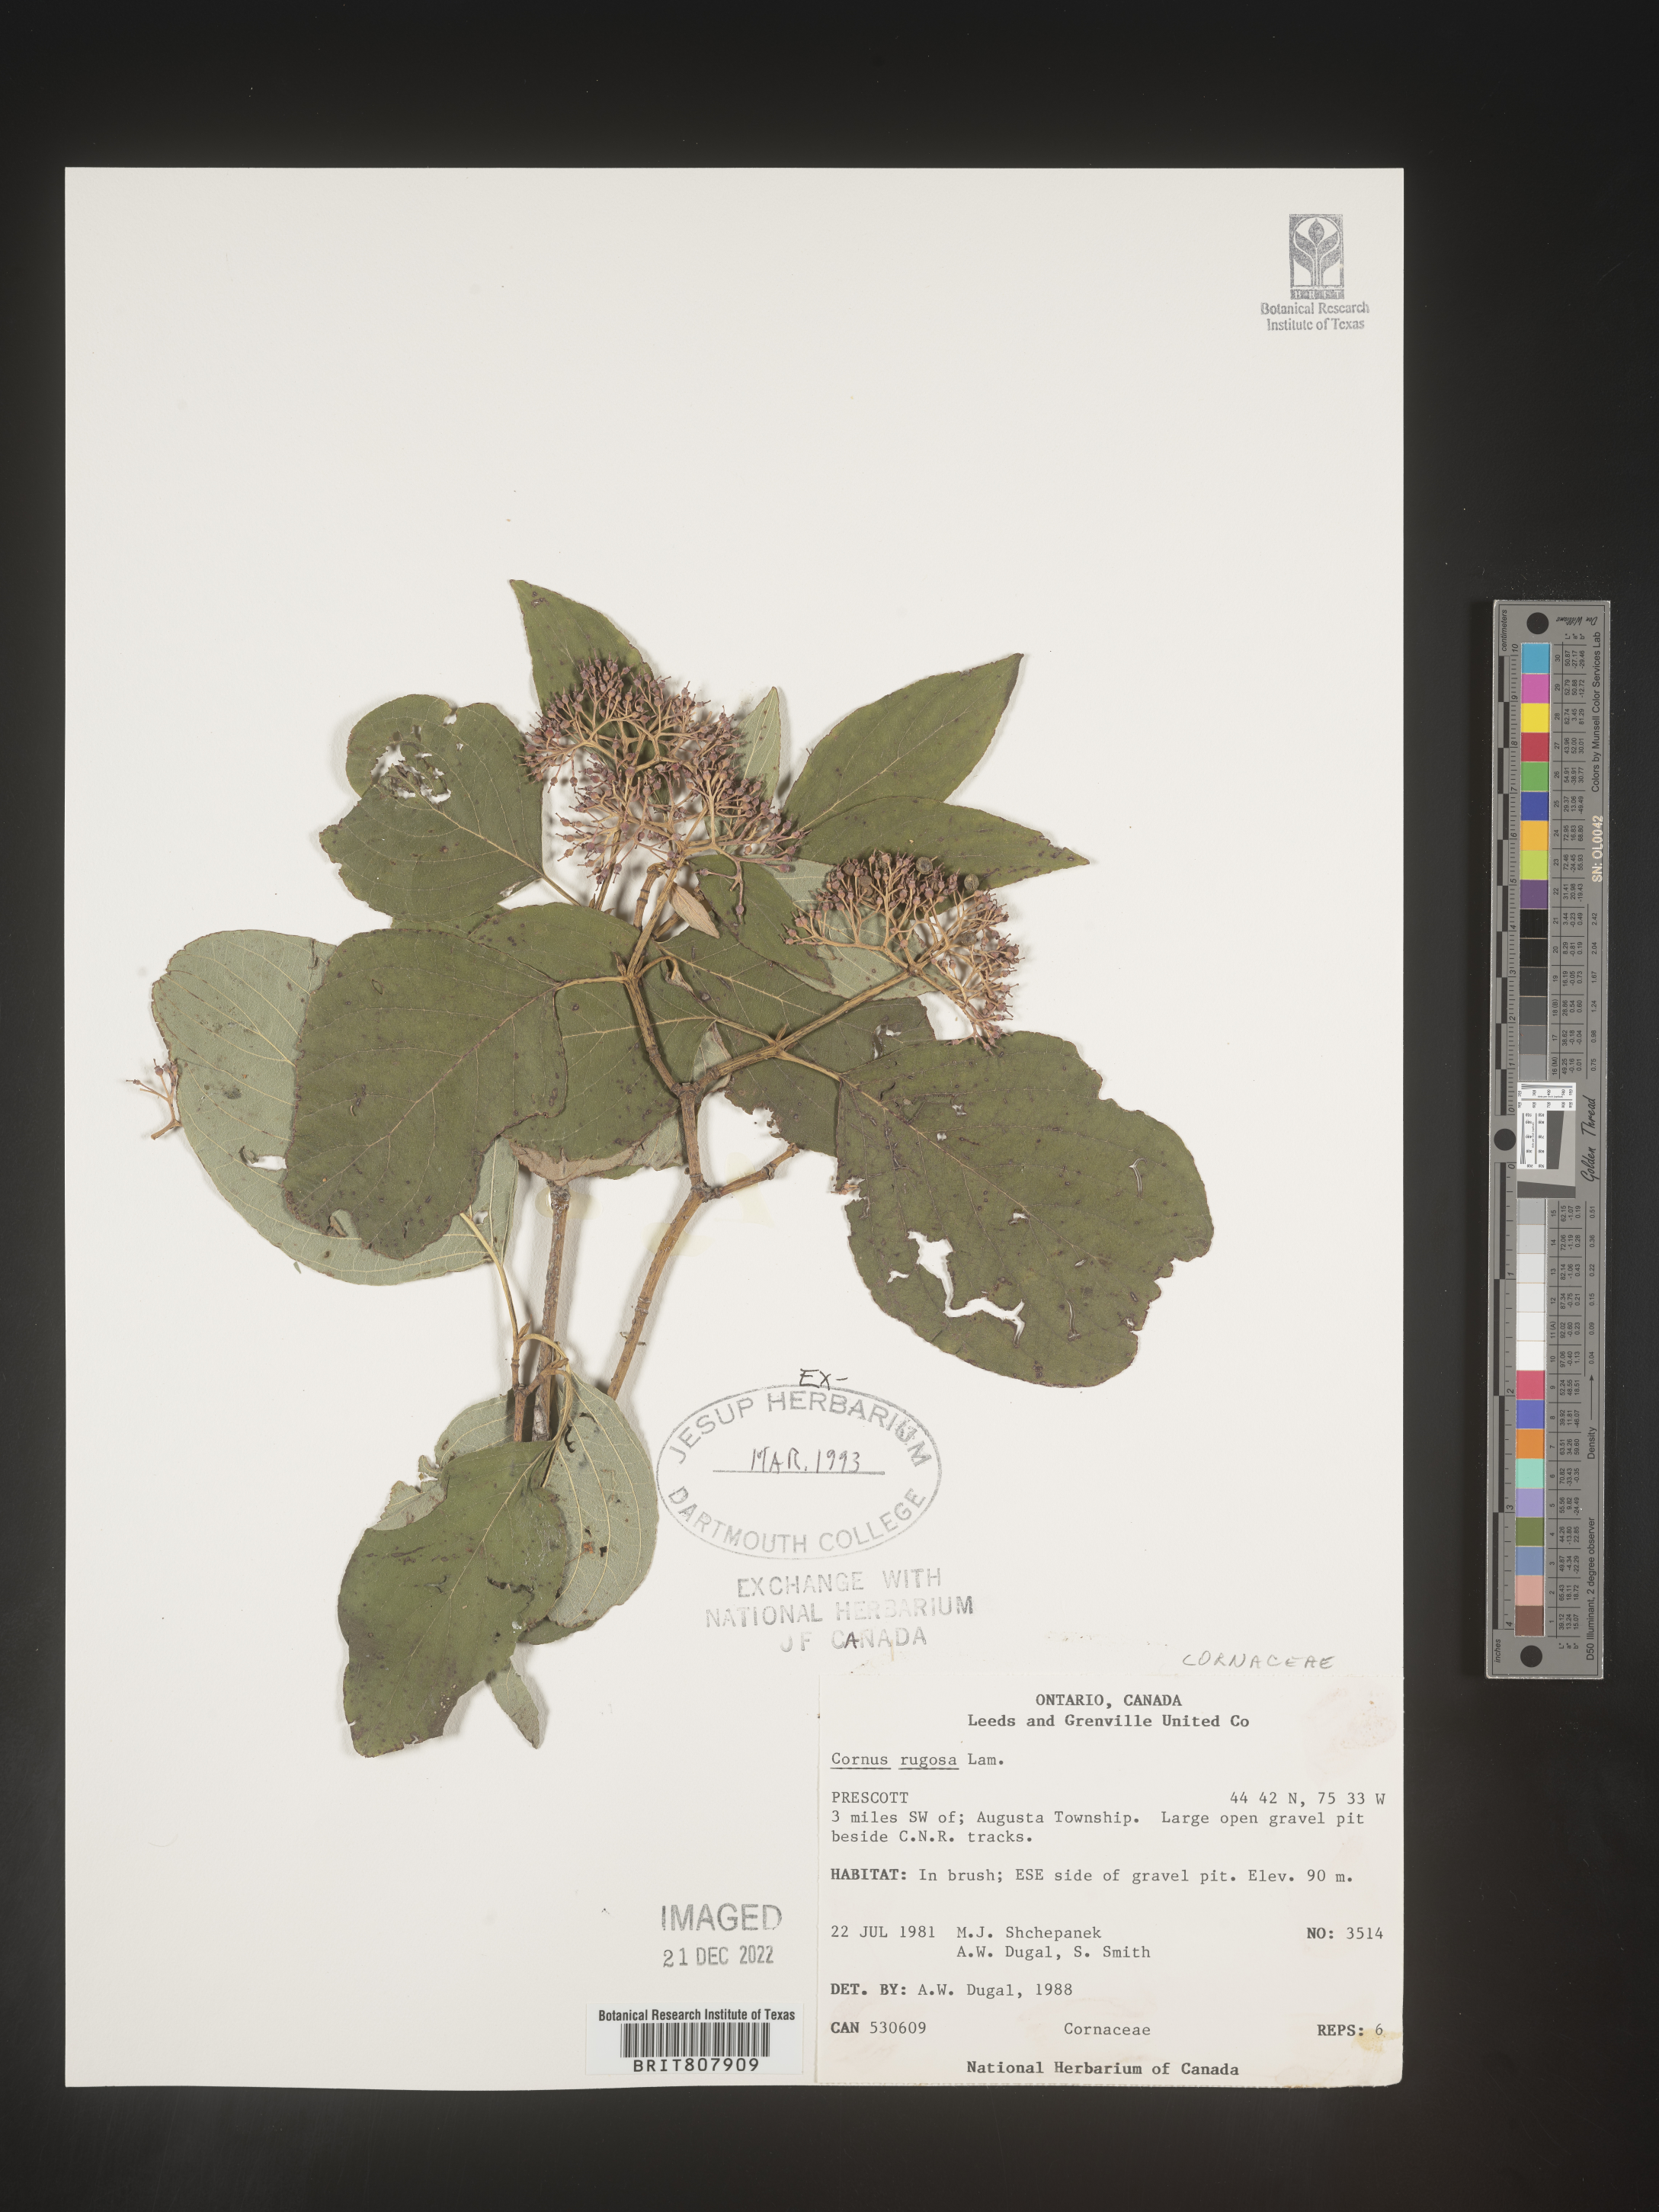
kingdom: Plantae
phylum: Tracheophyta
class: Magnoliopsida
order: Cornales
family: Cornaceae
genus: Cornus
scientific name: Cornus racemosa
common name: Panicled dogwood
